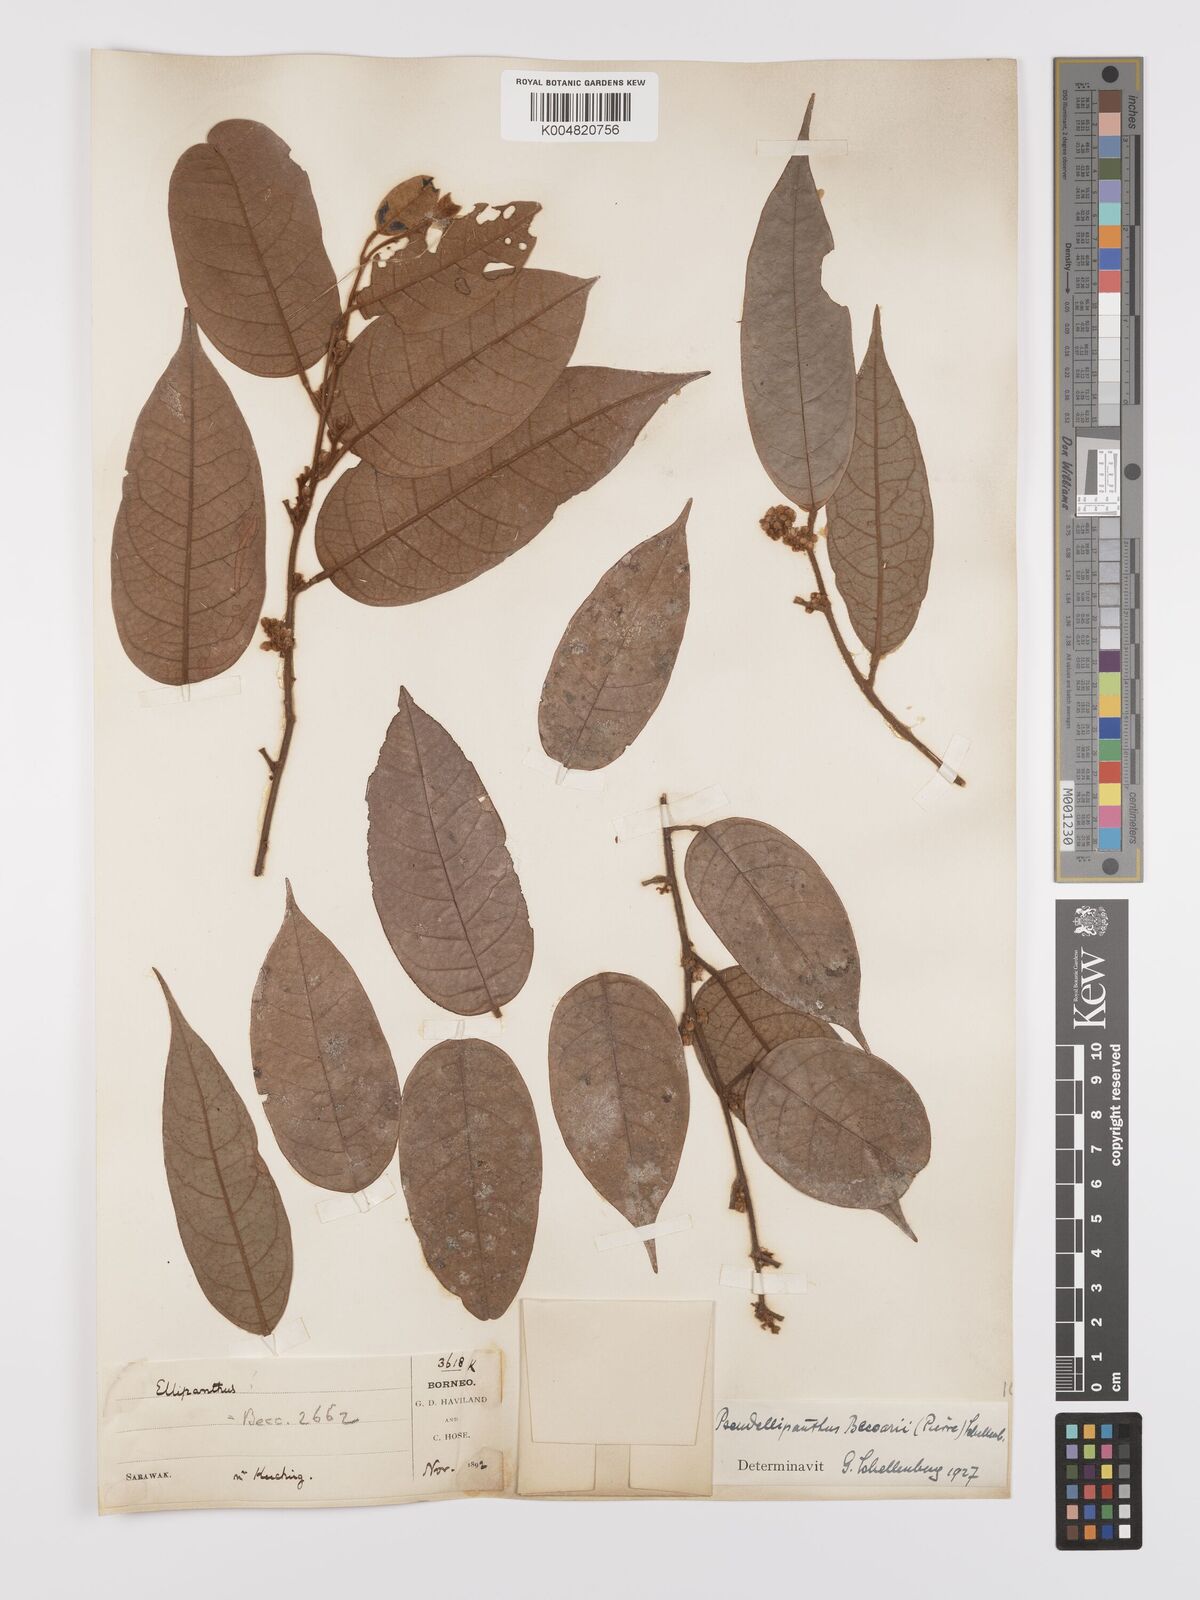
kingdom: Plantae
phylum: Tracheophyta
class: Magnoliopsida
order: Oxalidales
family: Connaraceae
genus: Ellipanthus
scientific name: Ellipanthus beccarii
